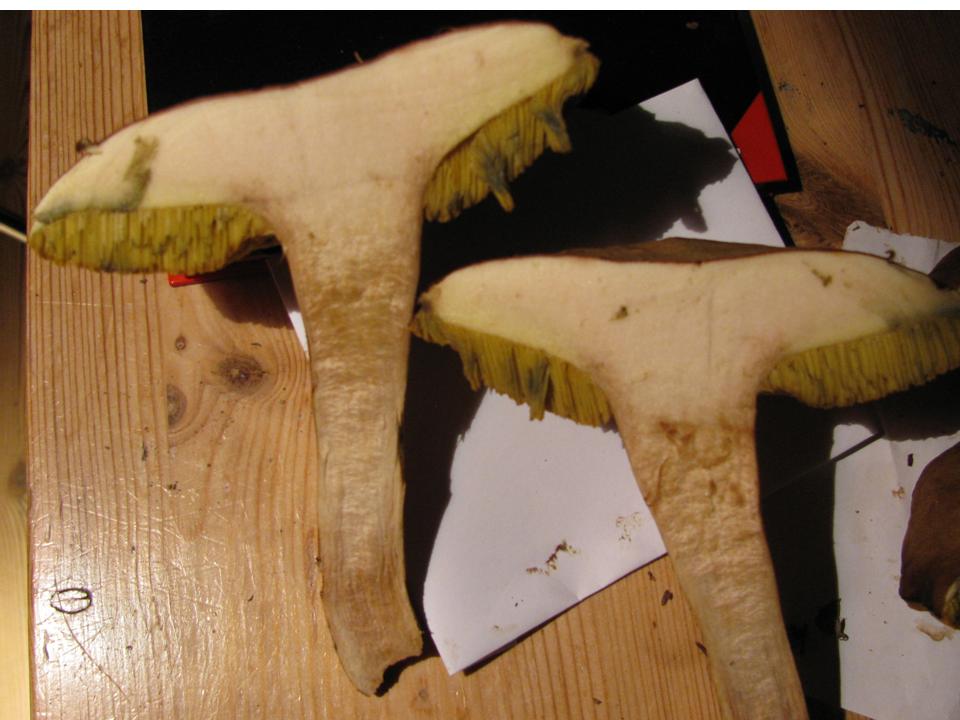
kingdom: Fungi
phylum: Basidiomycota
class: Agaricomycetes
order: Boletales
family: Boletaceae
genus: Xerocomus
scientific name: Xerocomus ferrugineus
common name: vaskeskinds-rørhat
